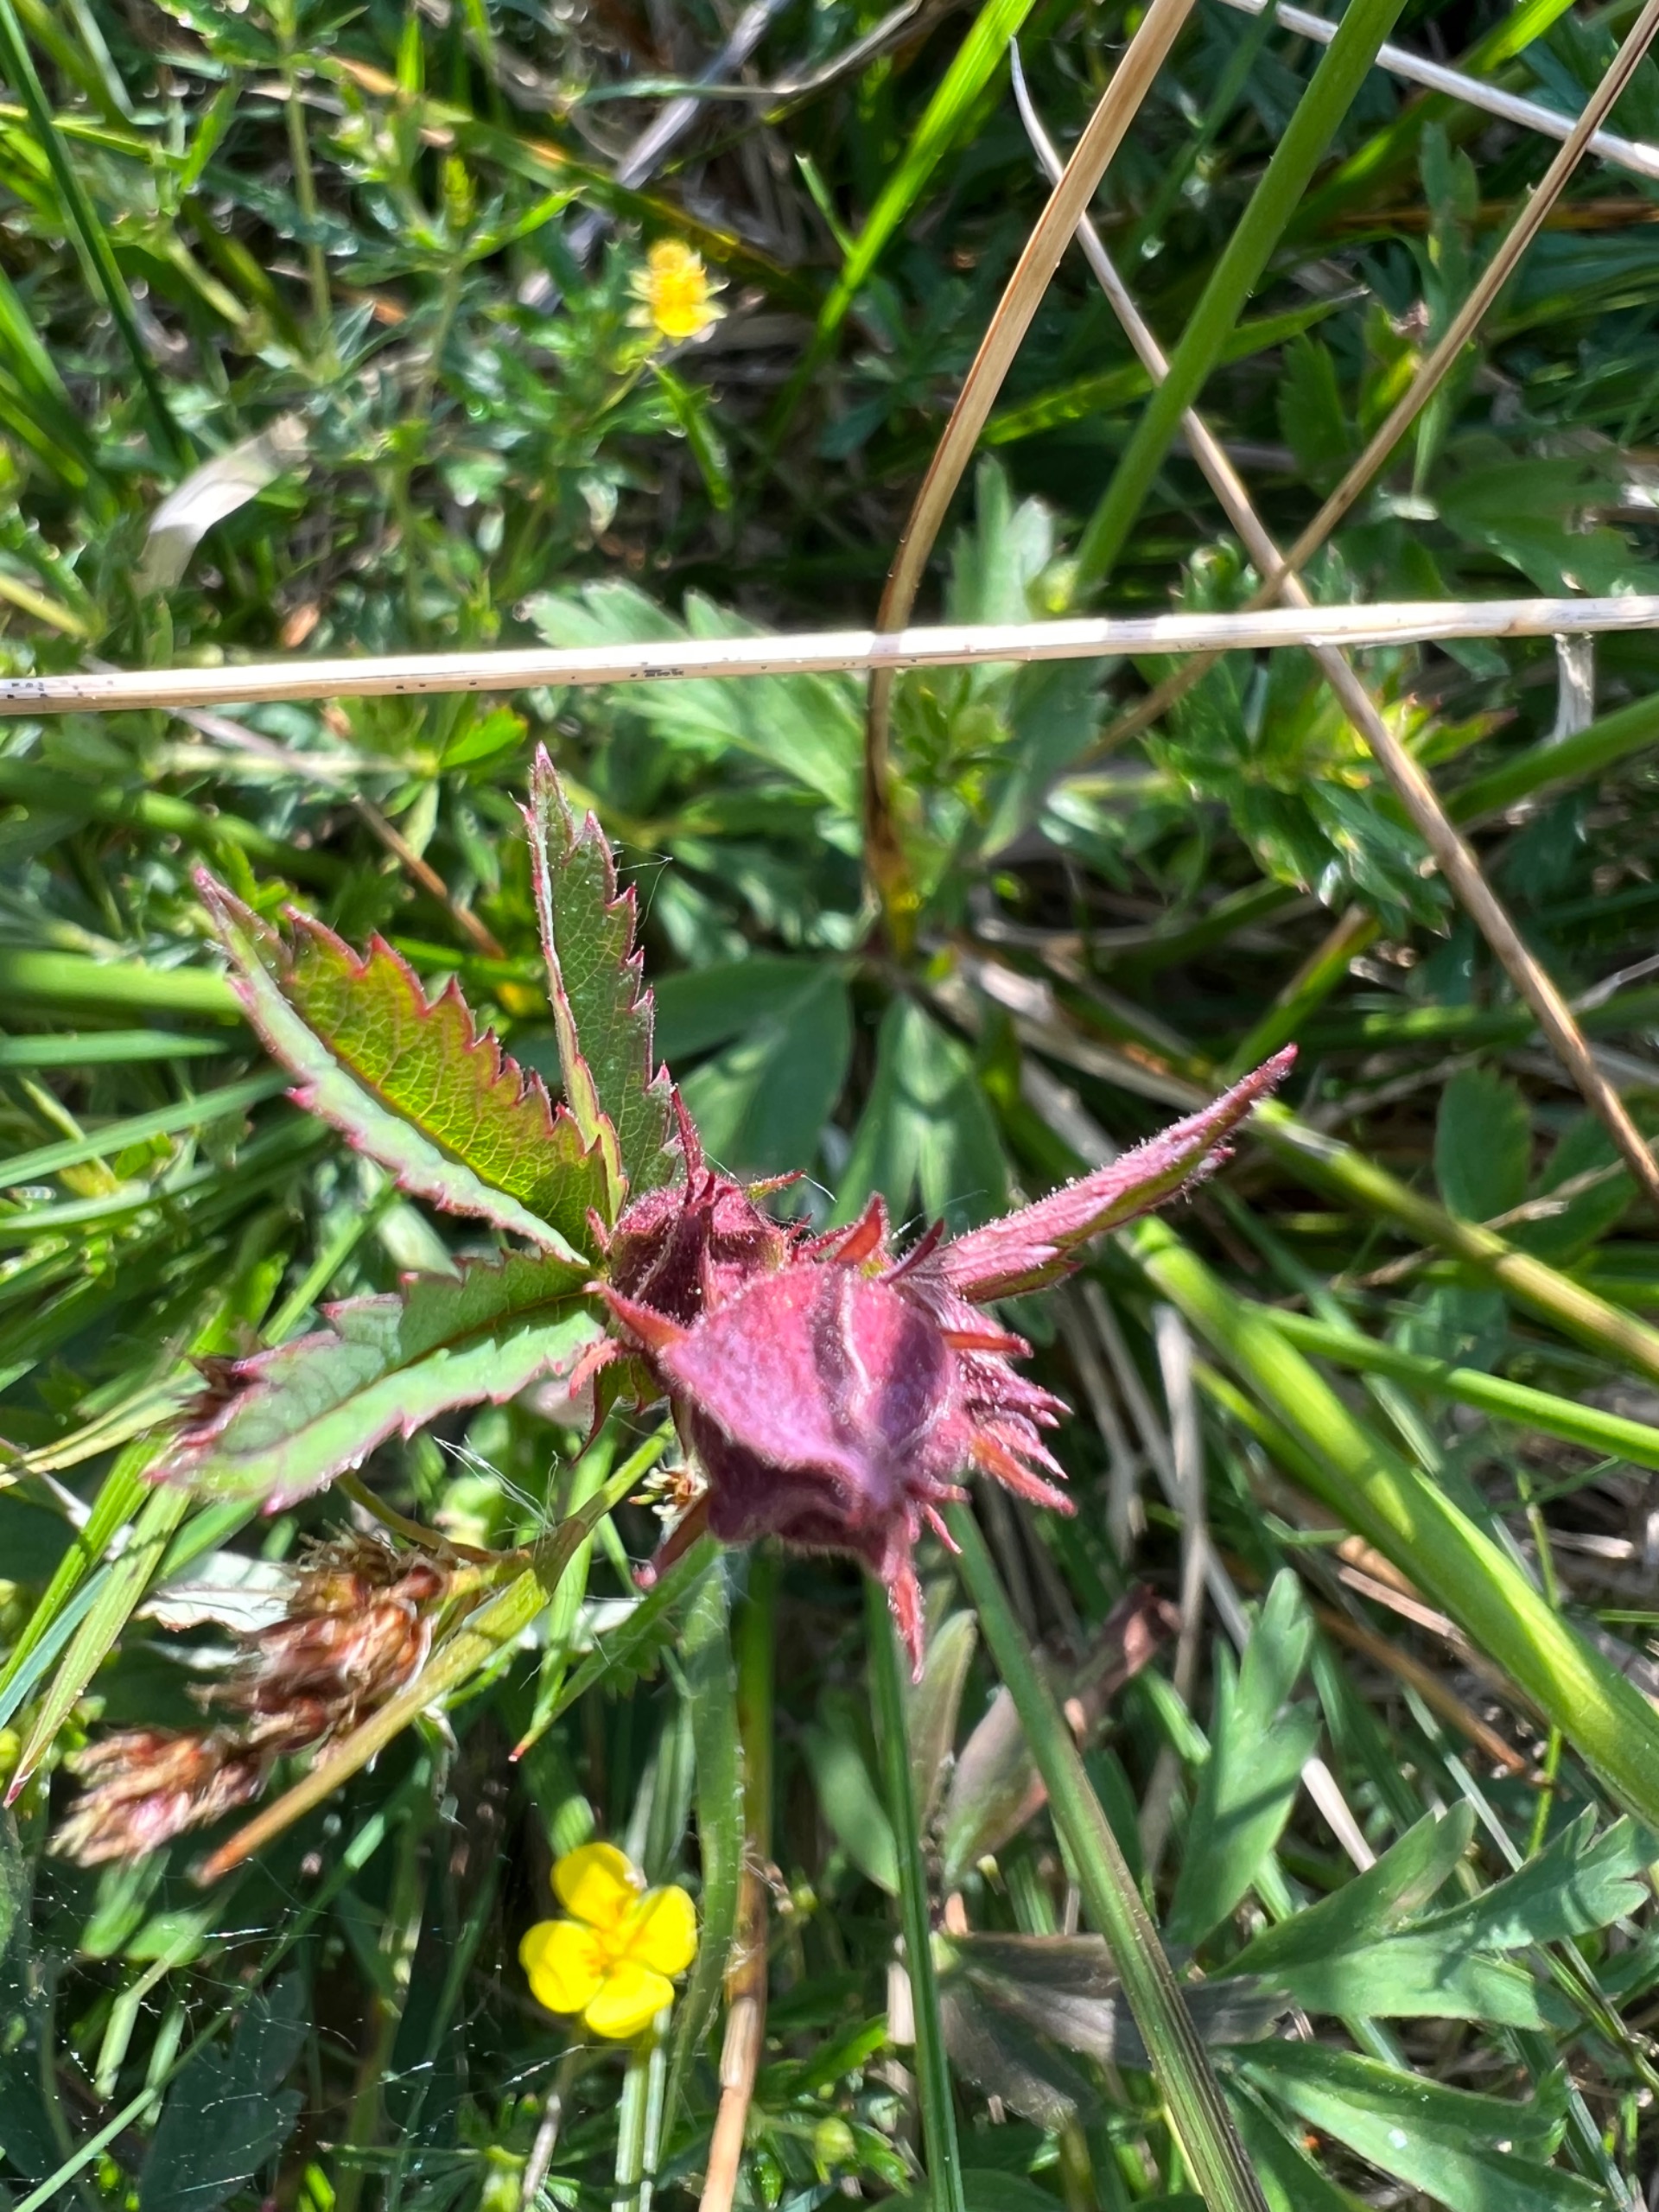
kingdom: Plantae
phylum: Tracheophyta
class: Magnoliopsida
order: Rosales
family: Rosaceae
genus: Comarum
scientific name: Comarum palustre
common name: Kragefod
